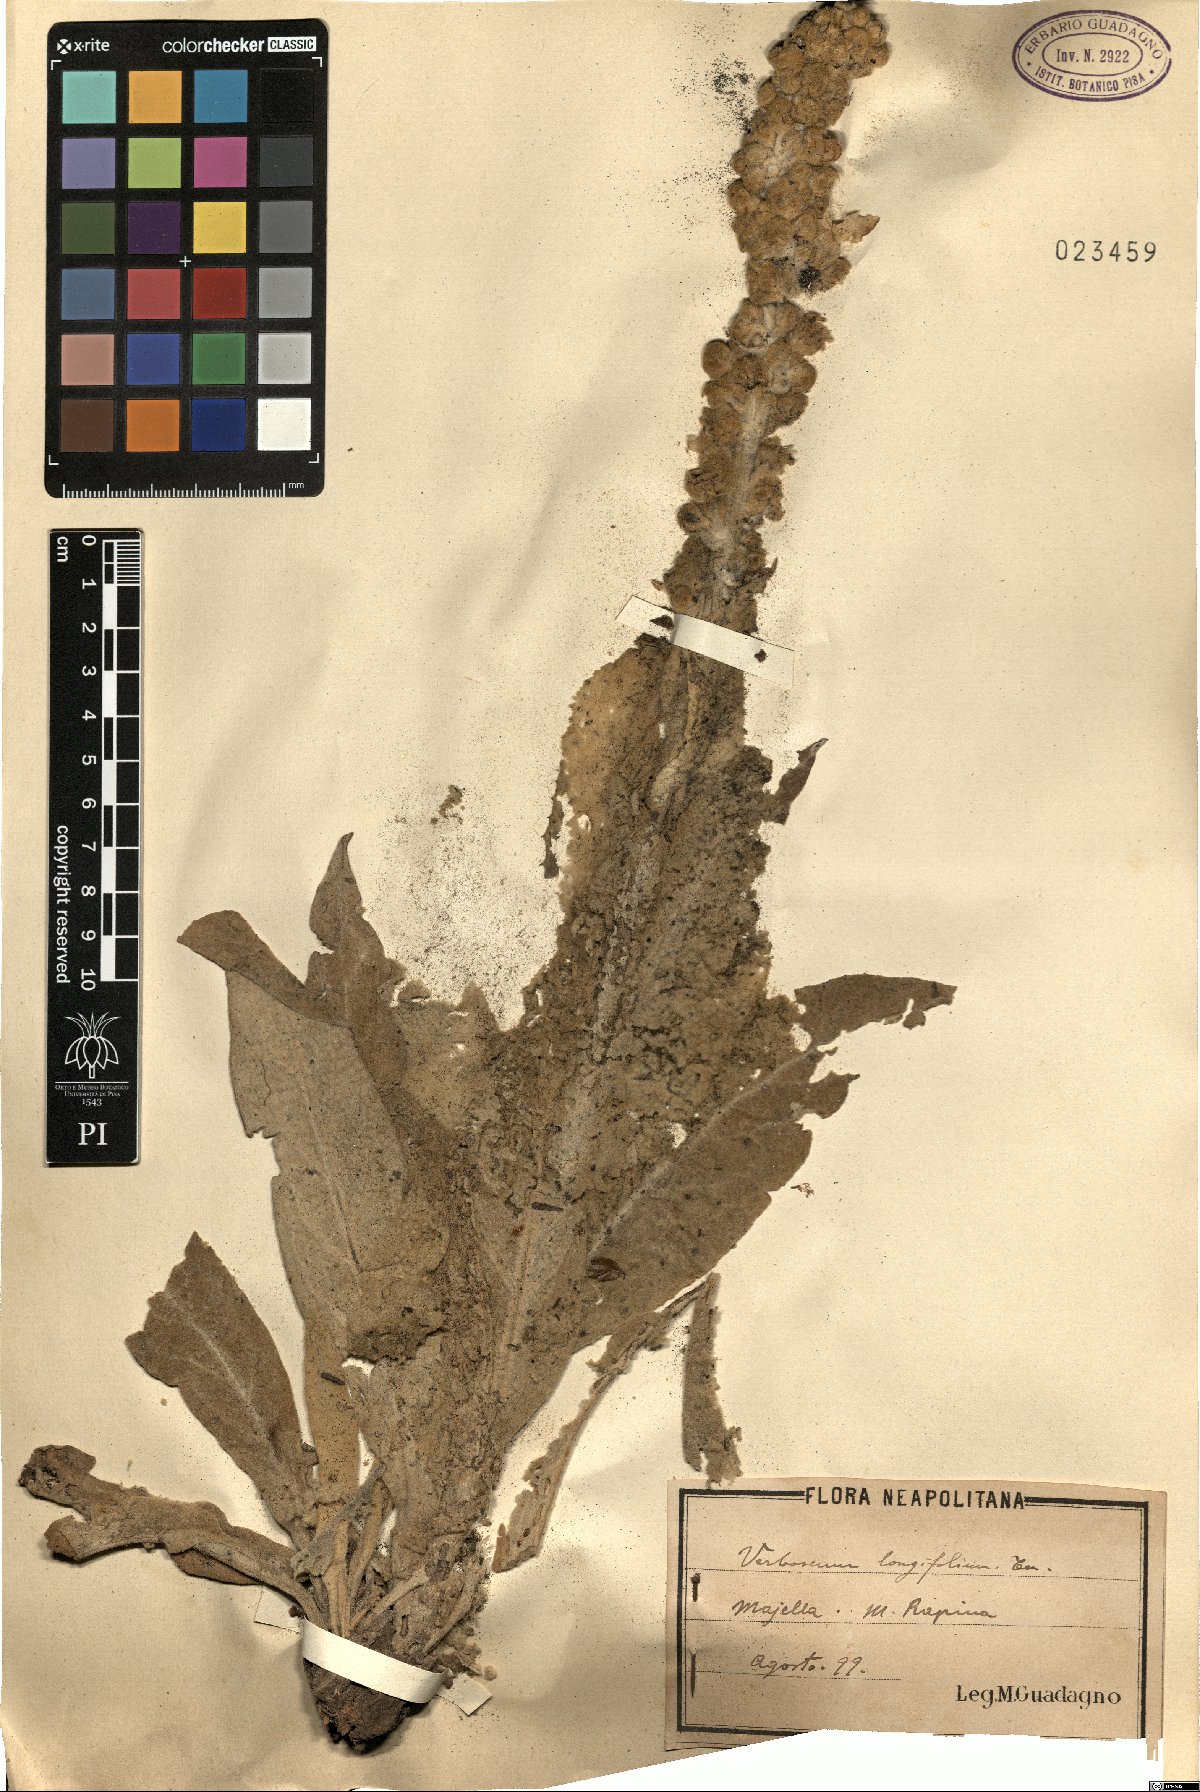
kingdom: Plantae
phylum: Tracheophyta
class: Magnoliopsida
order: Lamiales
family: Scrophulariaceae
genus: Verbascum
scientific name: Verbascum longifolium
